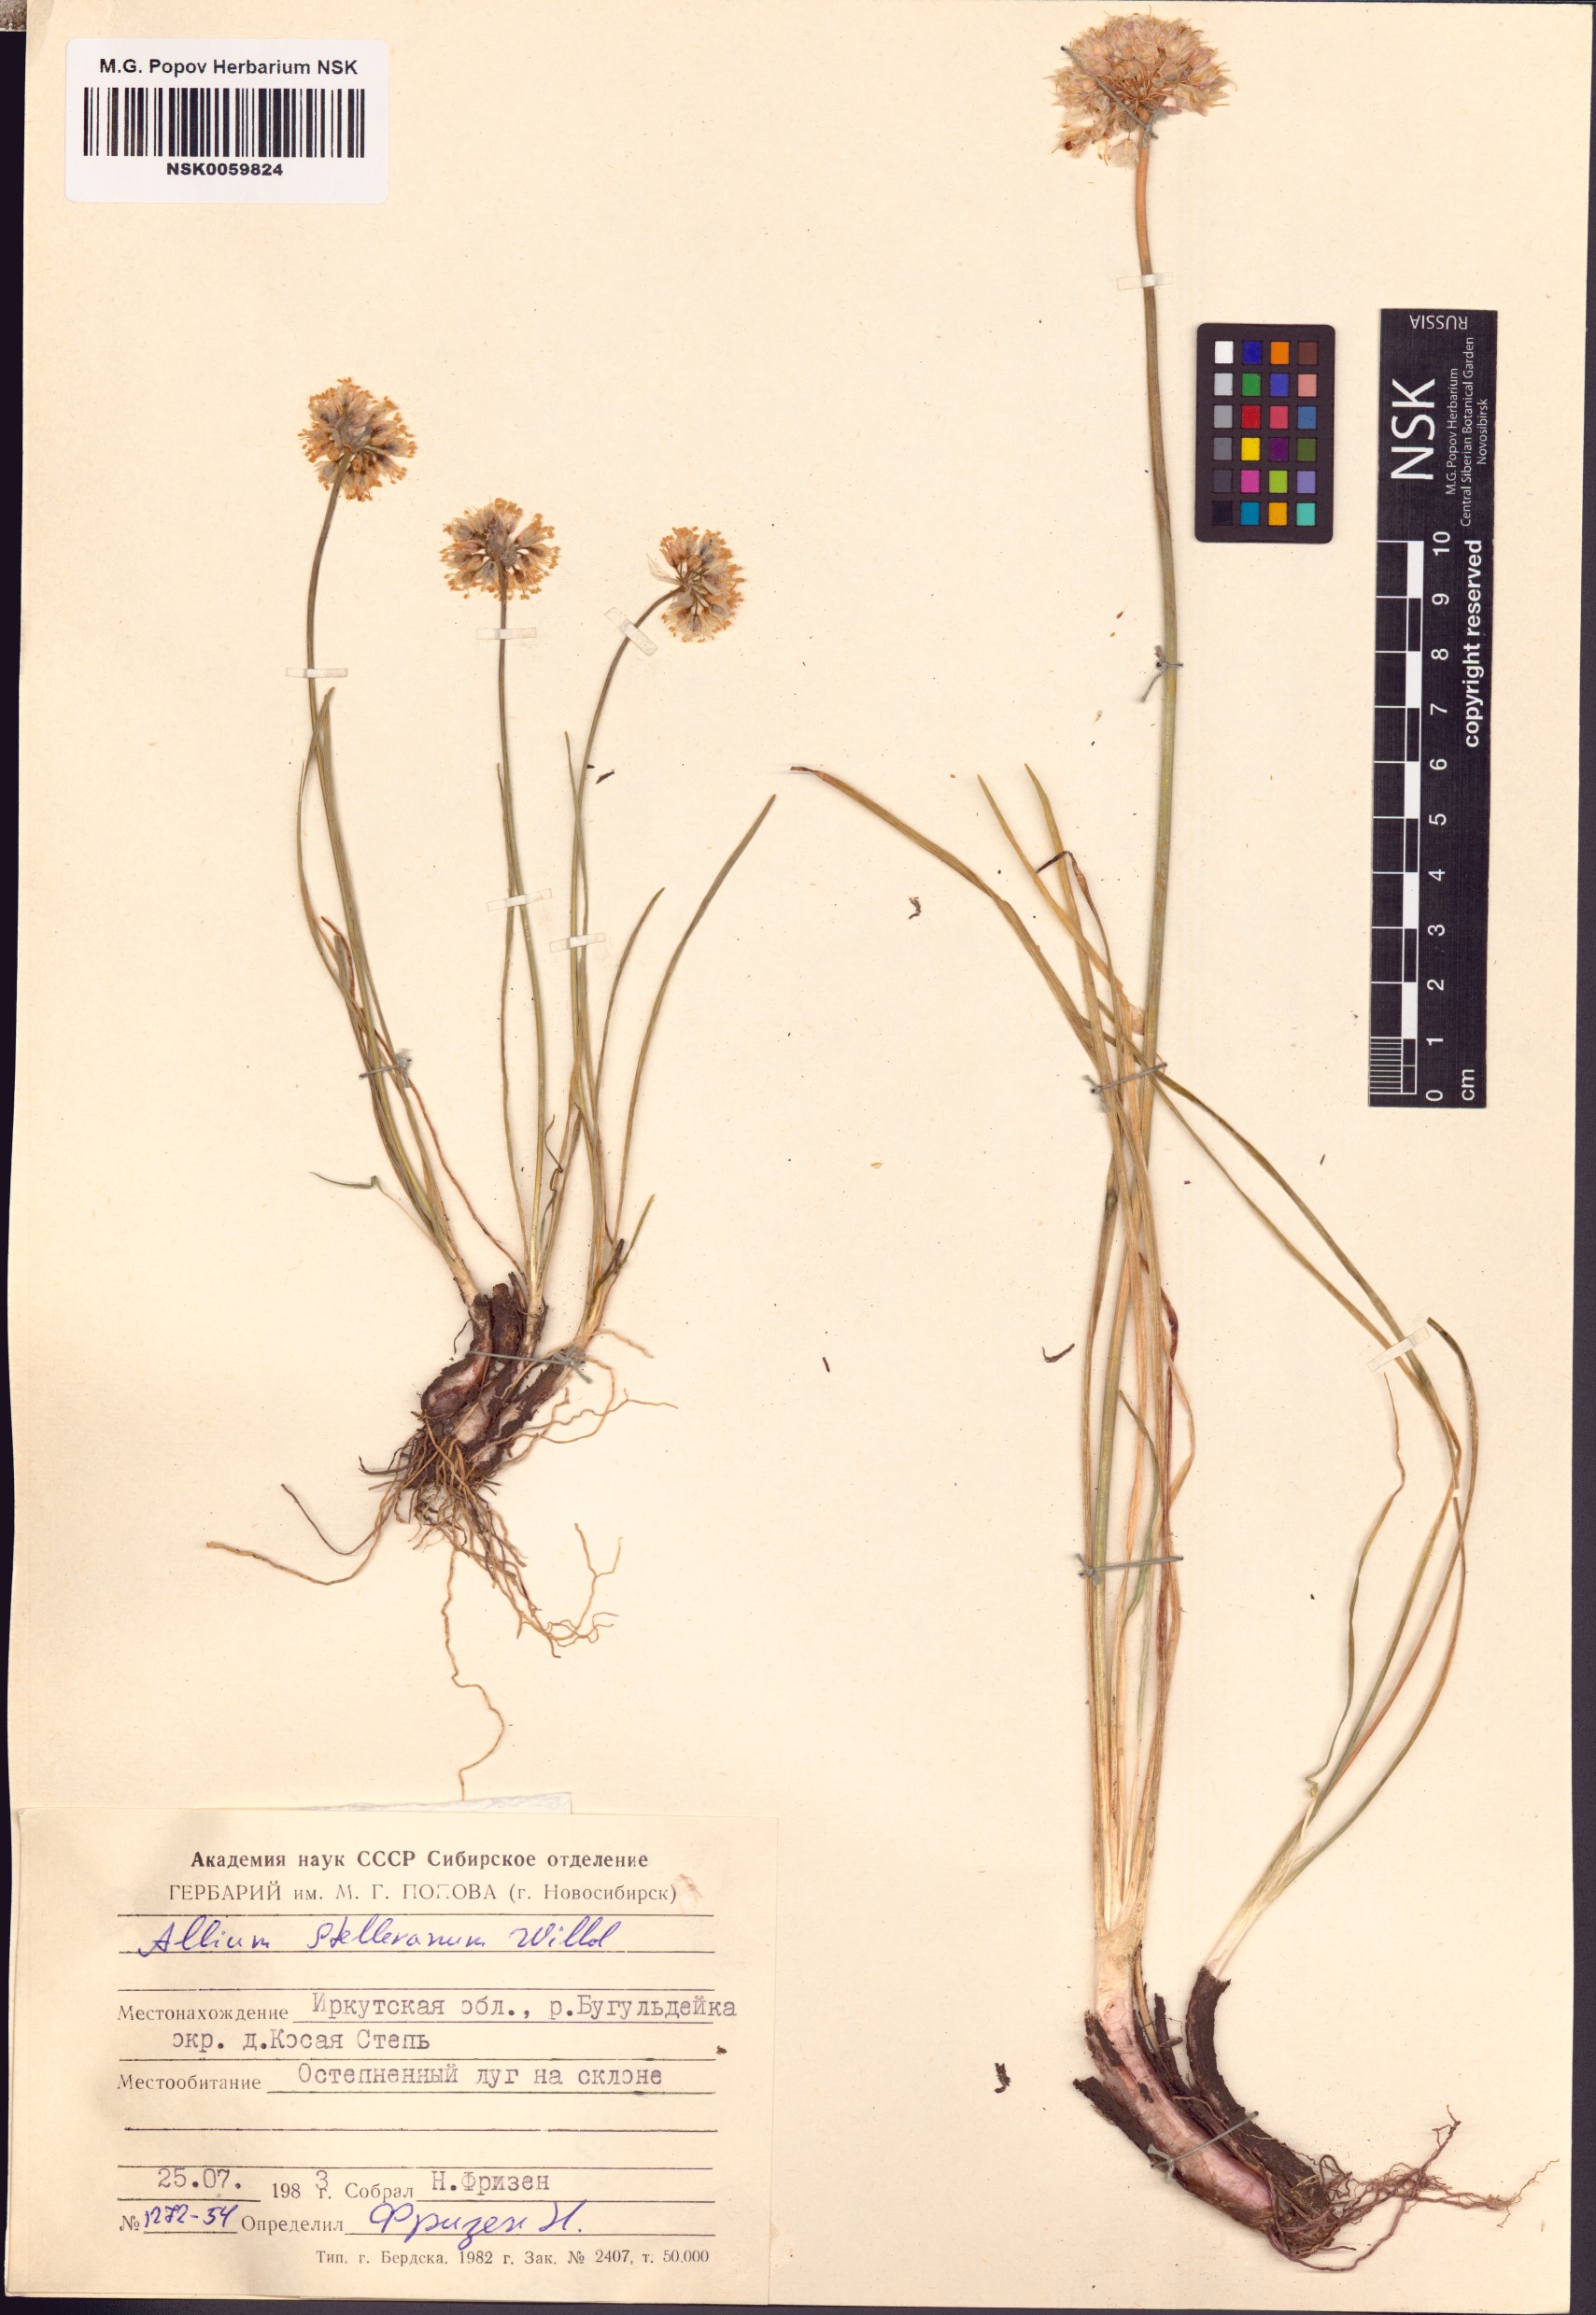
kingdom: Plantae
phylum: Tracheophyta
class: Liliopsida
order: Asparagales
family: Amaryllidaceae
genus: Allium
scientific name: Allium stellerianum
